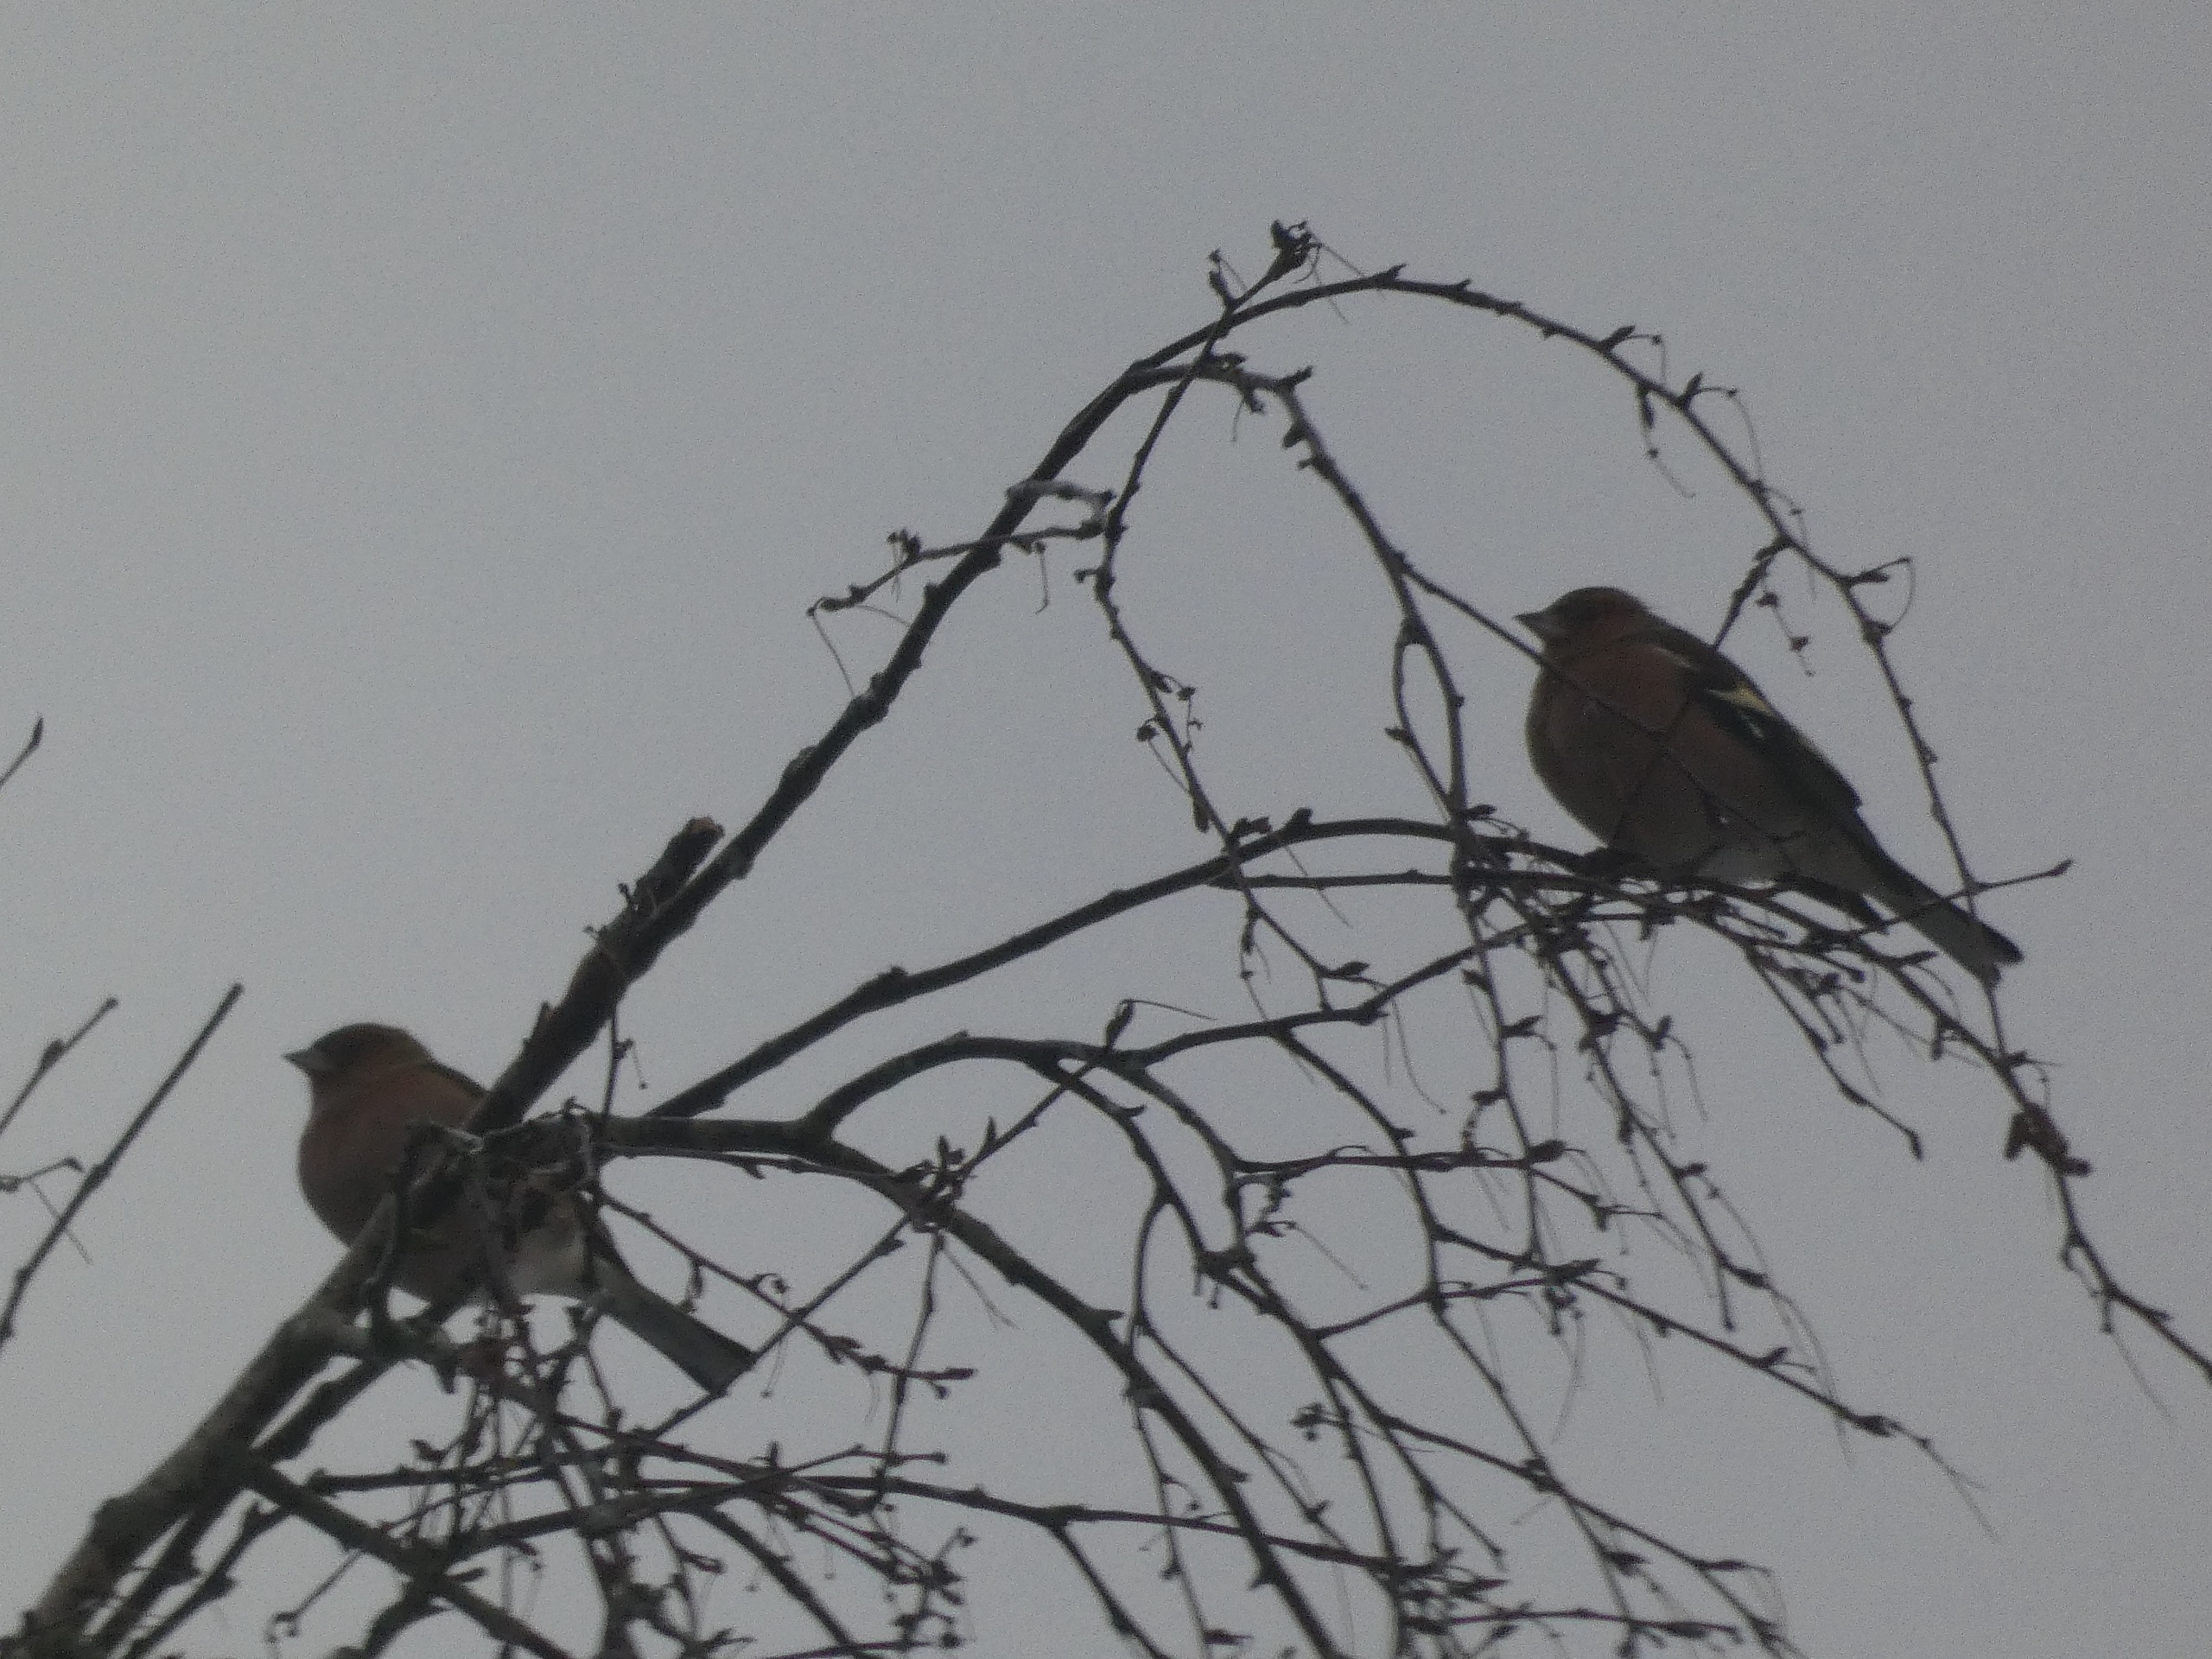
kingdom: Animalia
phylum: Chordata
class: Aves
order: Passeriformes
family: Fringillidae
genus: Fringilla
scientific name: Fringilla coelebs
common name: Bogfinke
